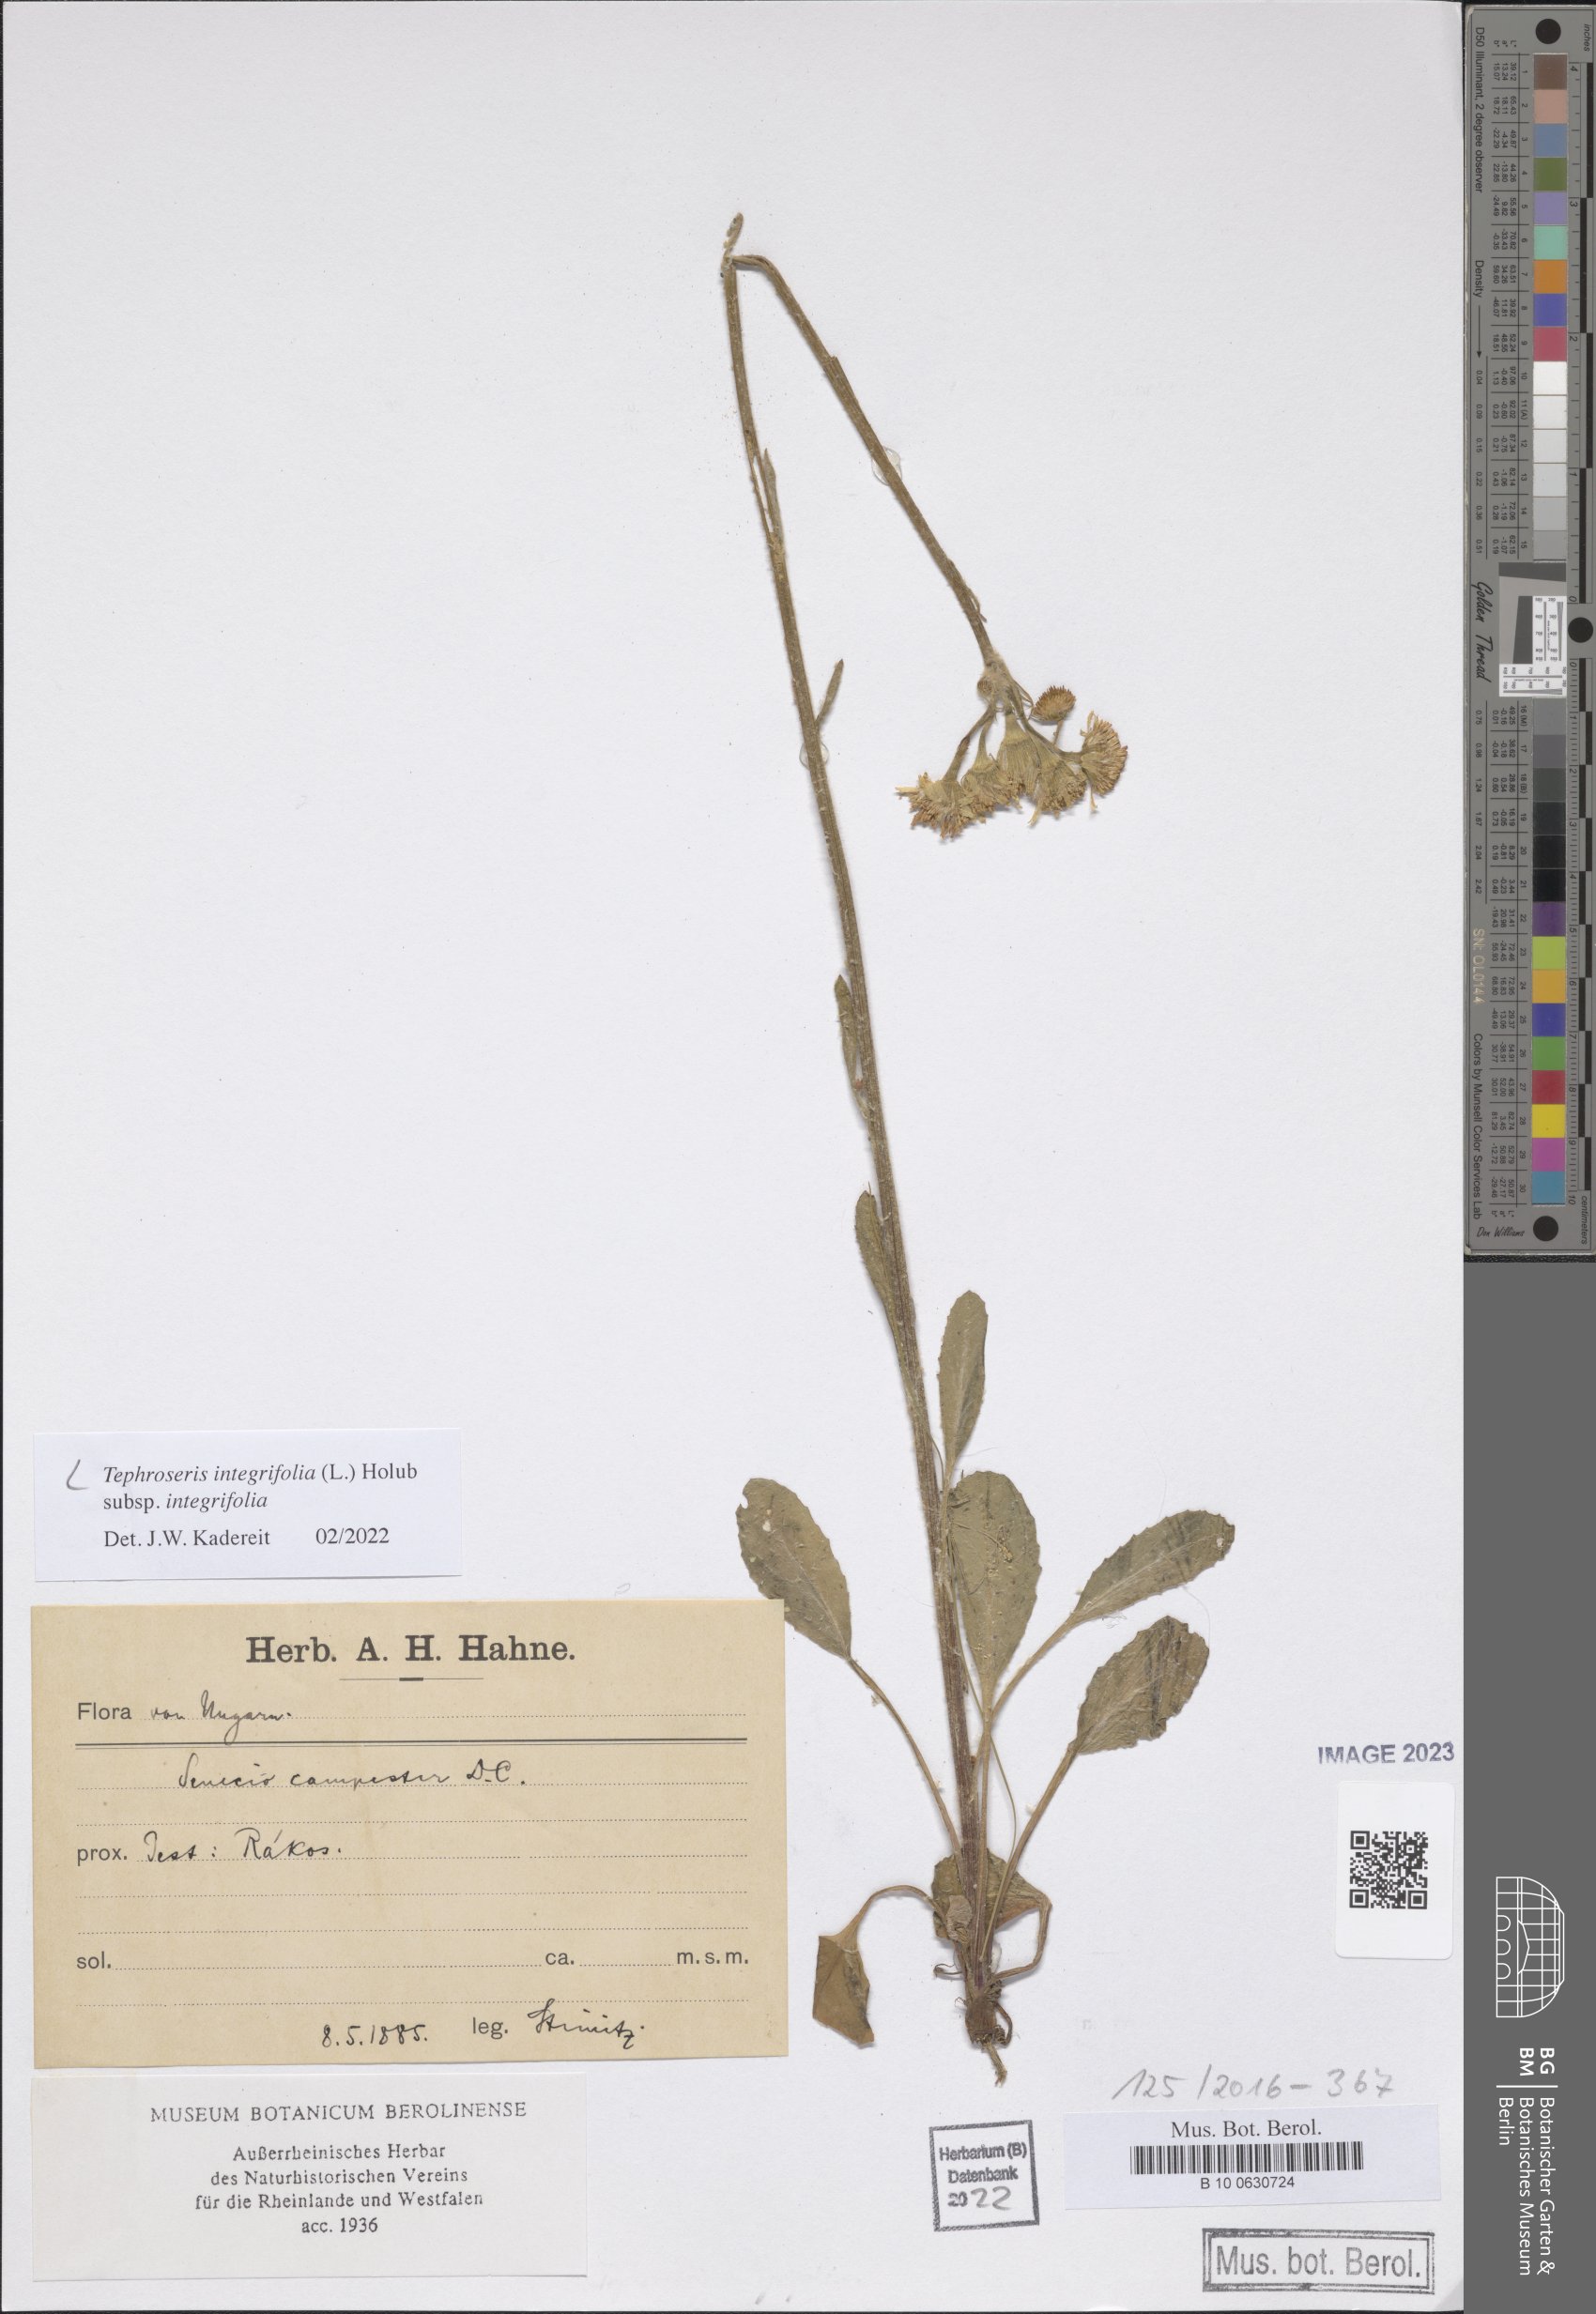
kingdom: Plantae
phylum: Tracheophyta
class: Magnoliopsida
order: Asterales
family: Asteraceae
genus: Tephroseris
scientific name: Tephroseris integrifolia
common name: Field fleawort
